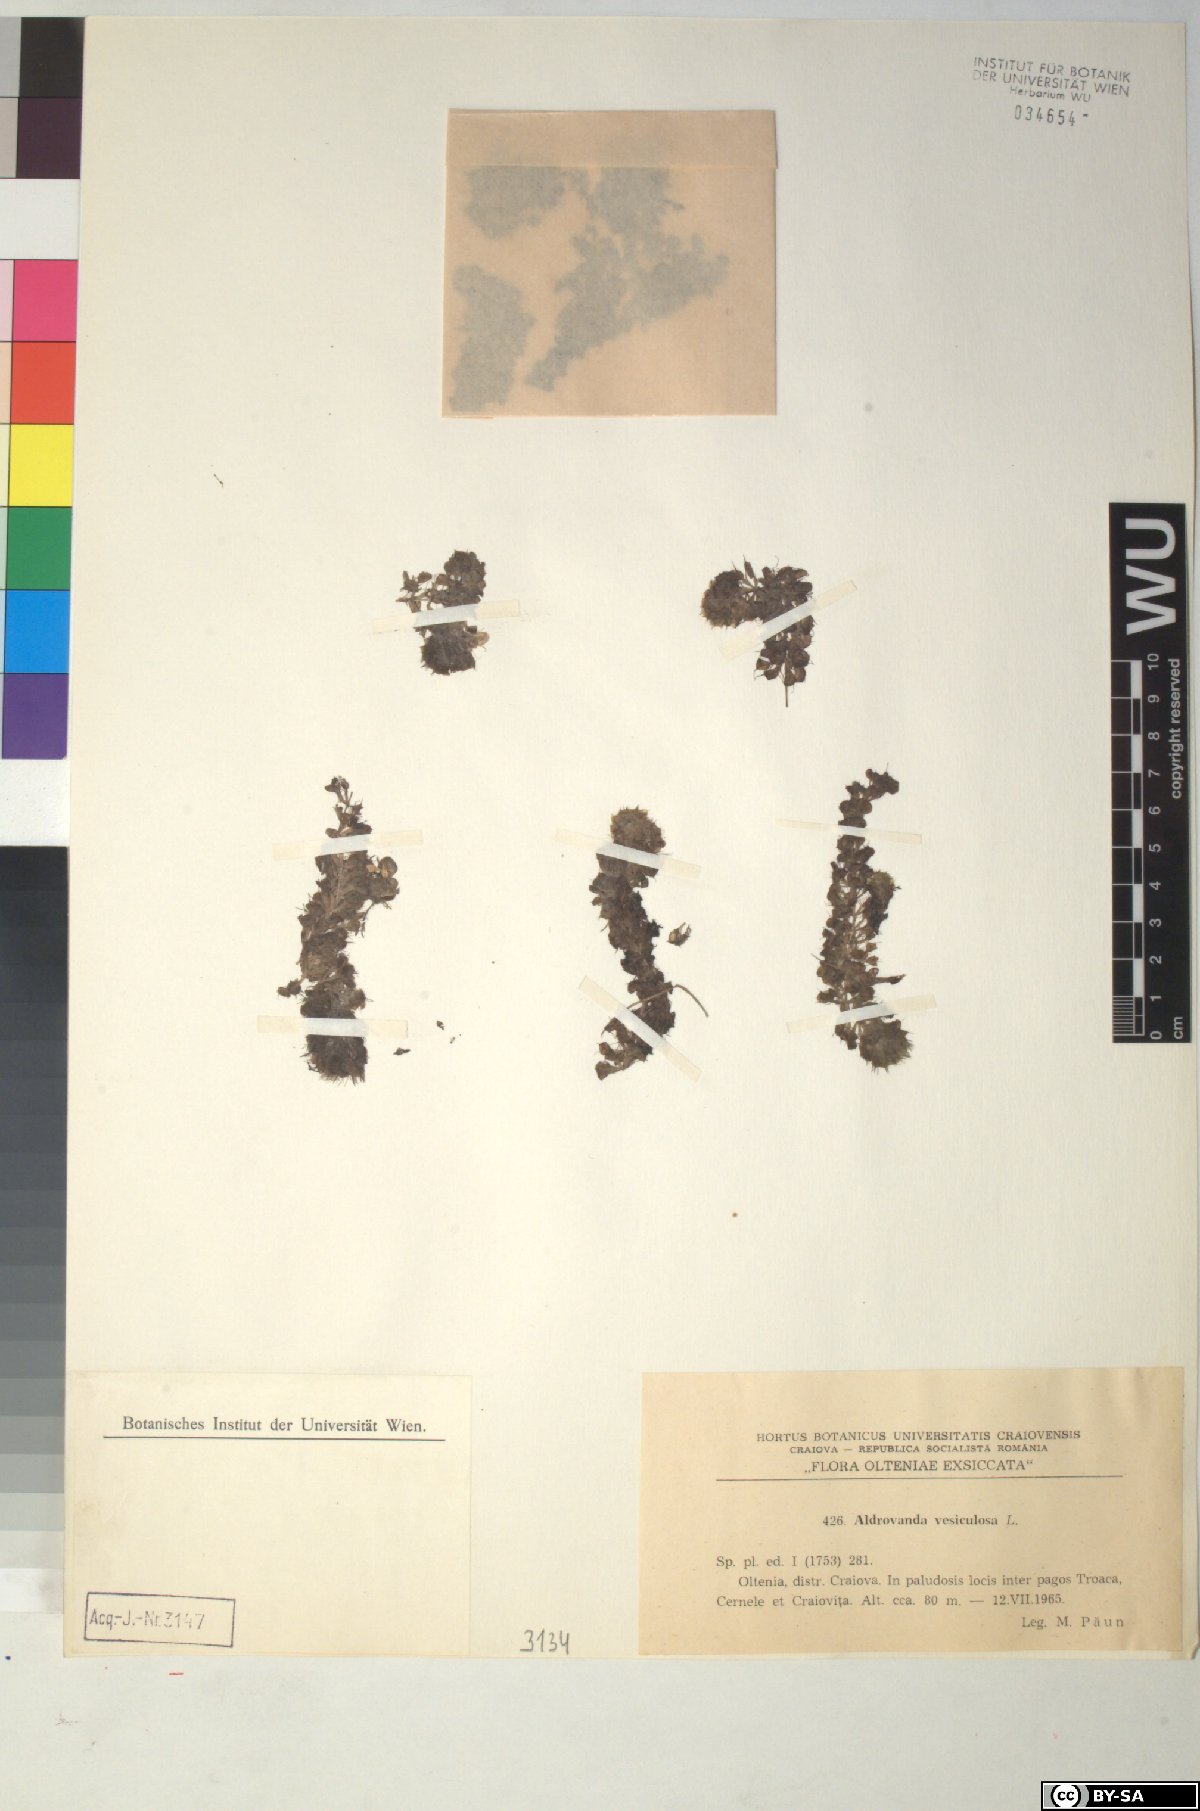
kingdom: Plantae
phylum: Tracheophyta
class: Magnoliopsida
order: Caryophyllales
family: Droseraceae
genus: Aldrovanda
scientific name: Aldrovanda vesiculosa
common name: Waterwheel plant
